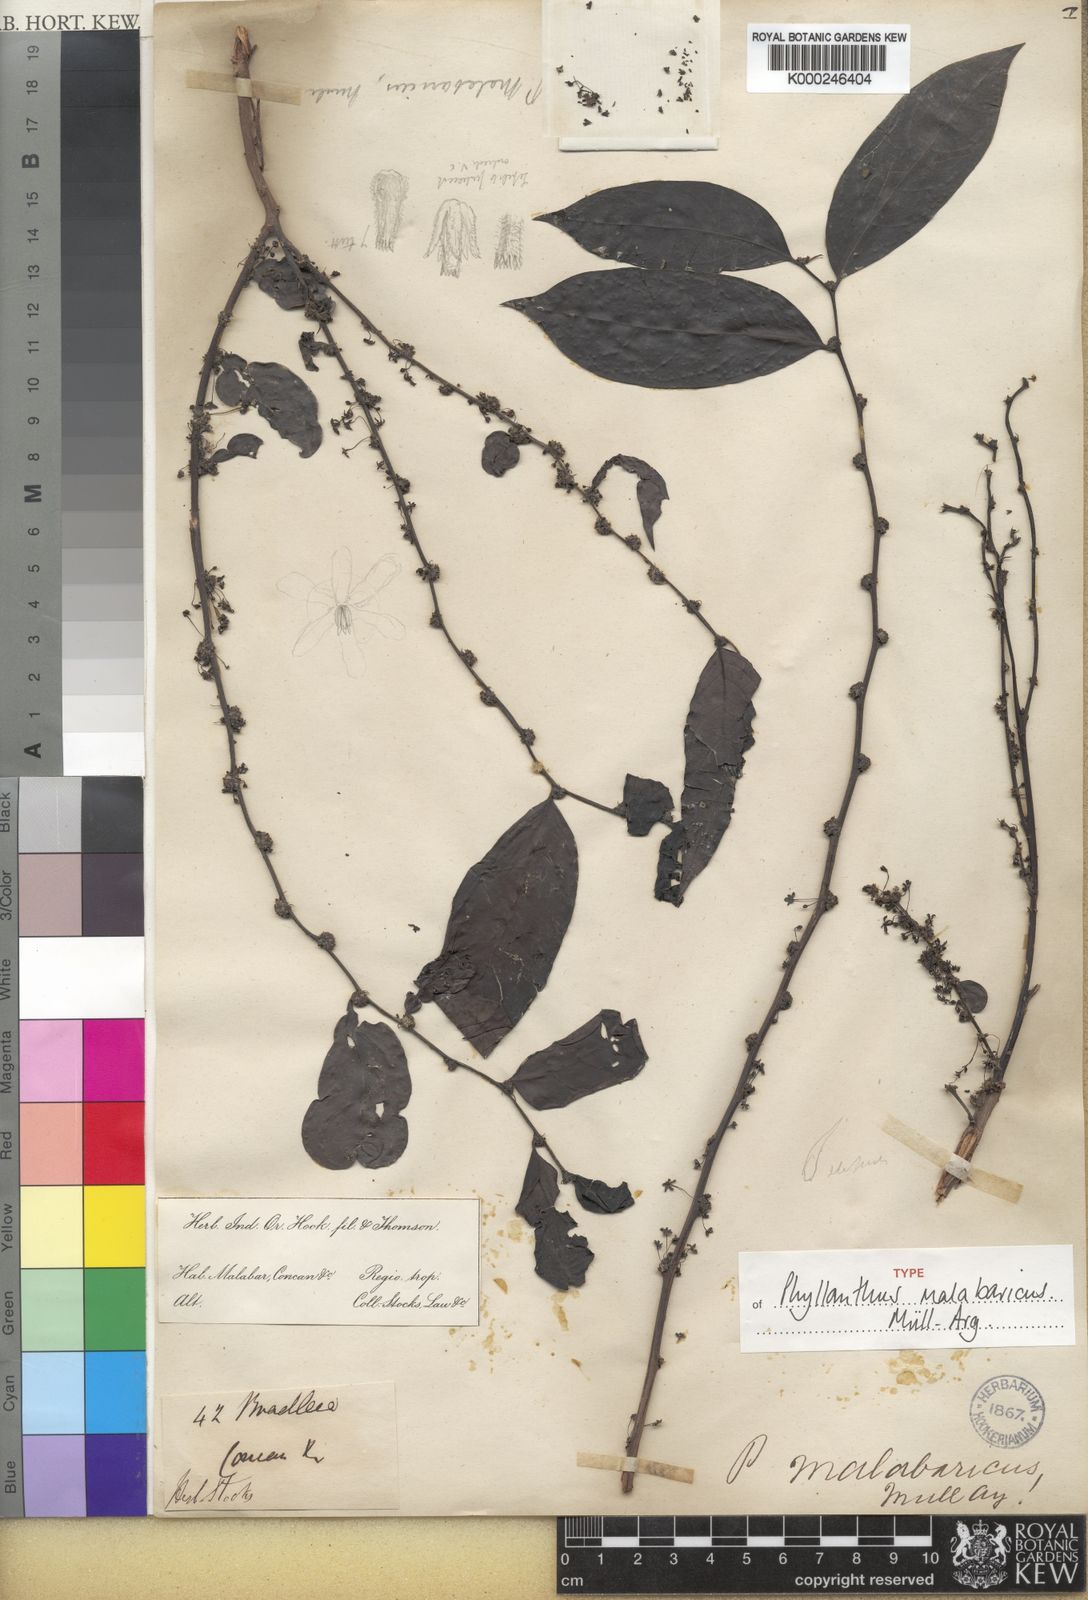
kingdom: Plantae
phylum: Tracheophyta
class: Magnoliopsida
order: Malpighiales
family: Phyllanthaceae
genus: Glochidion
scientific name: Glochidion ellipticum
